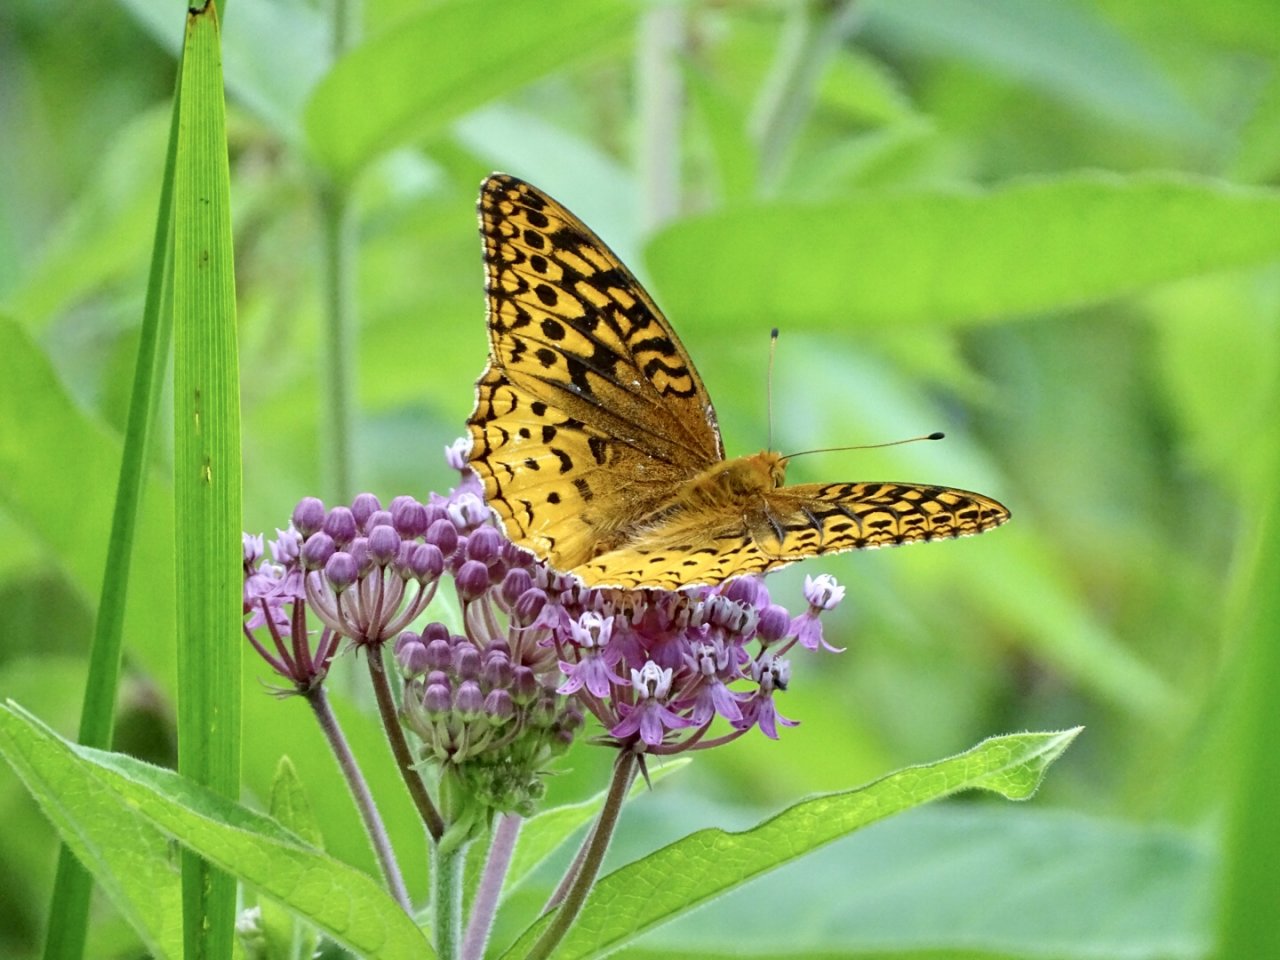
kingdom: Animalia
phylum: Arthropoda
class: Insecta
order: Lepidoptera
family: Nymphalidae
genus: Speyeria
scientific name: Speyeria cybele
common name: Great Spangled Fritillary
